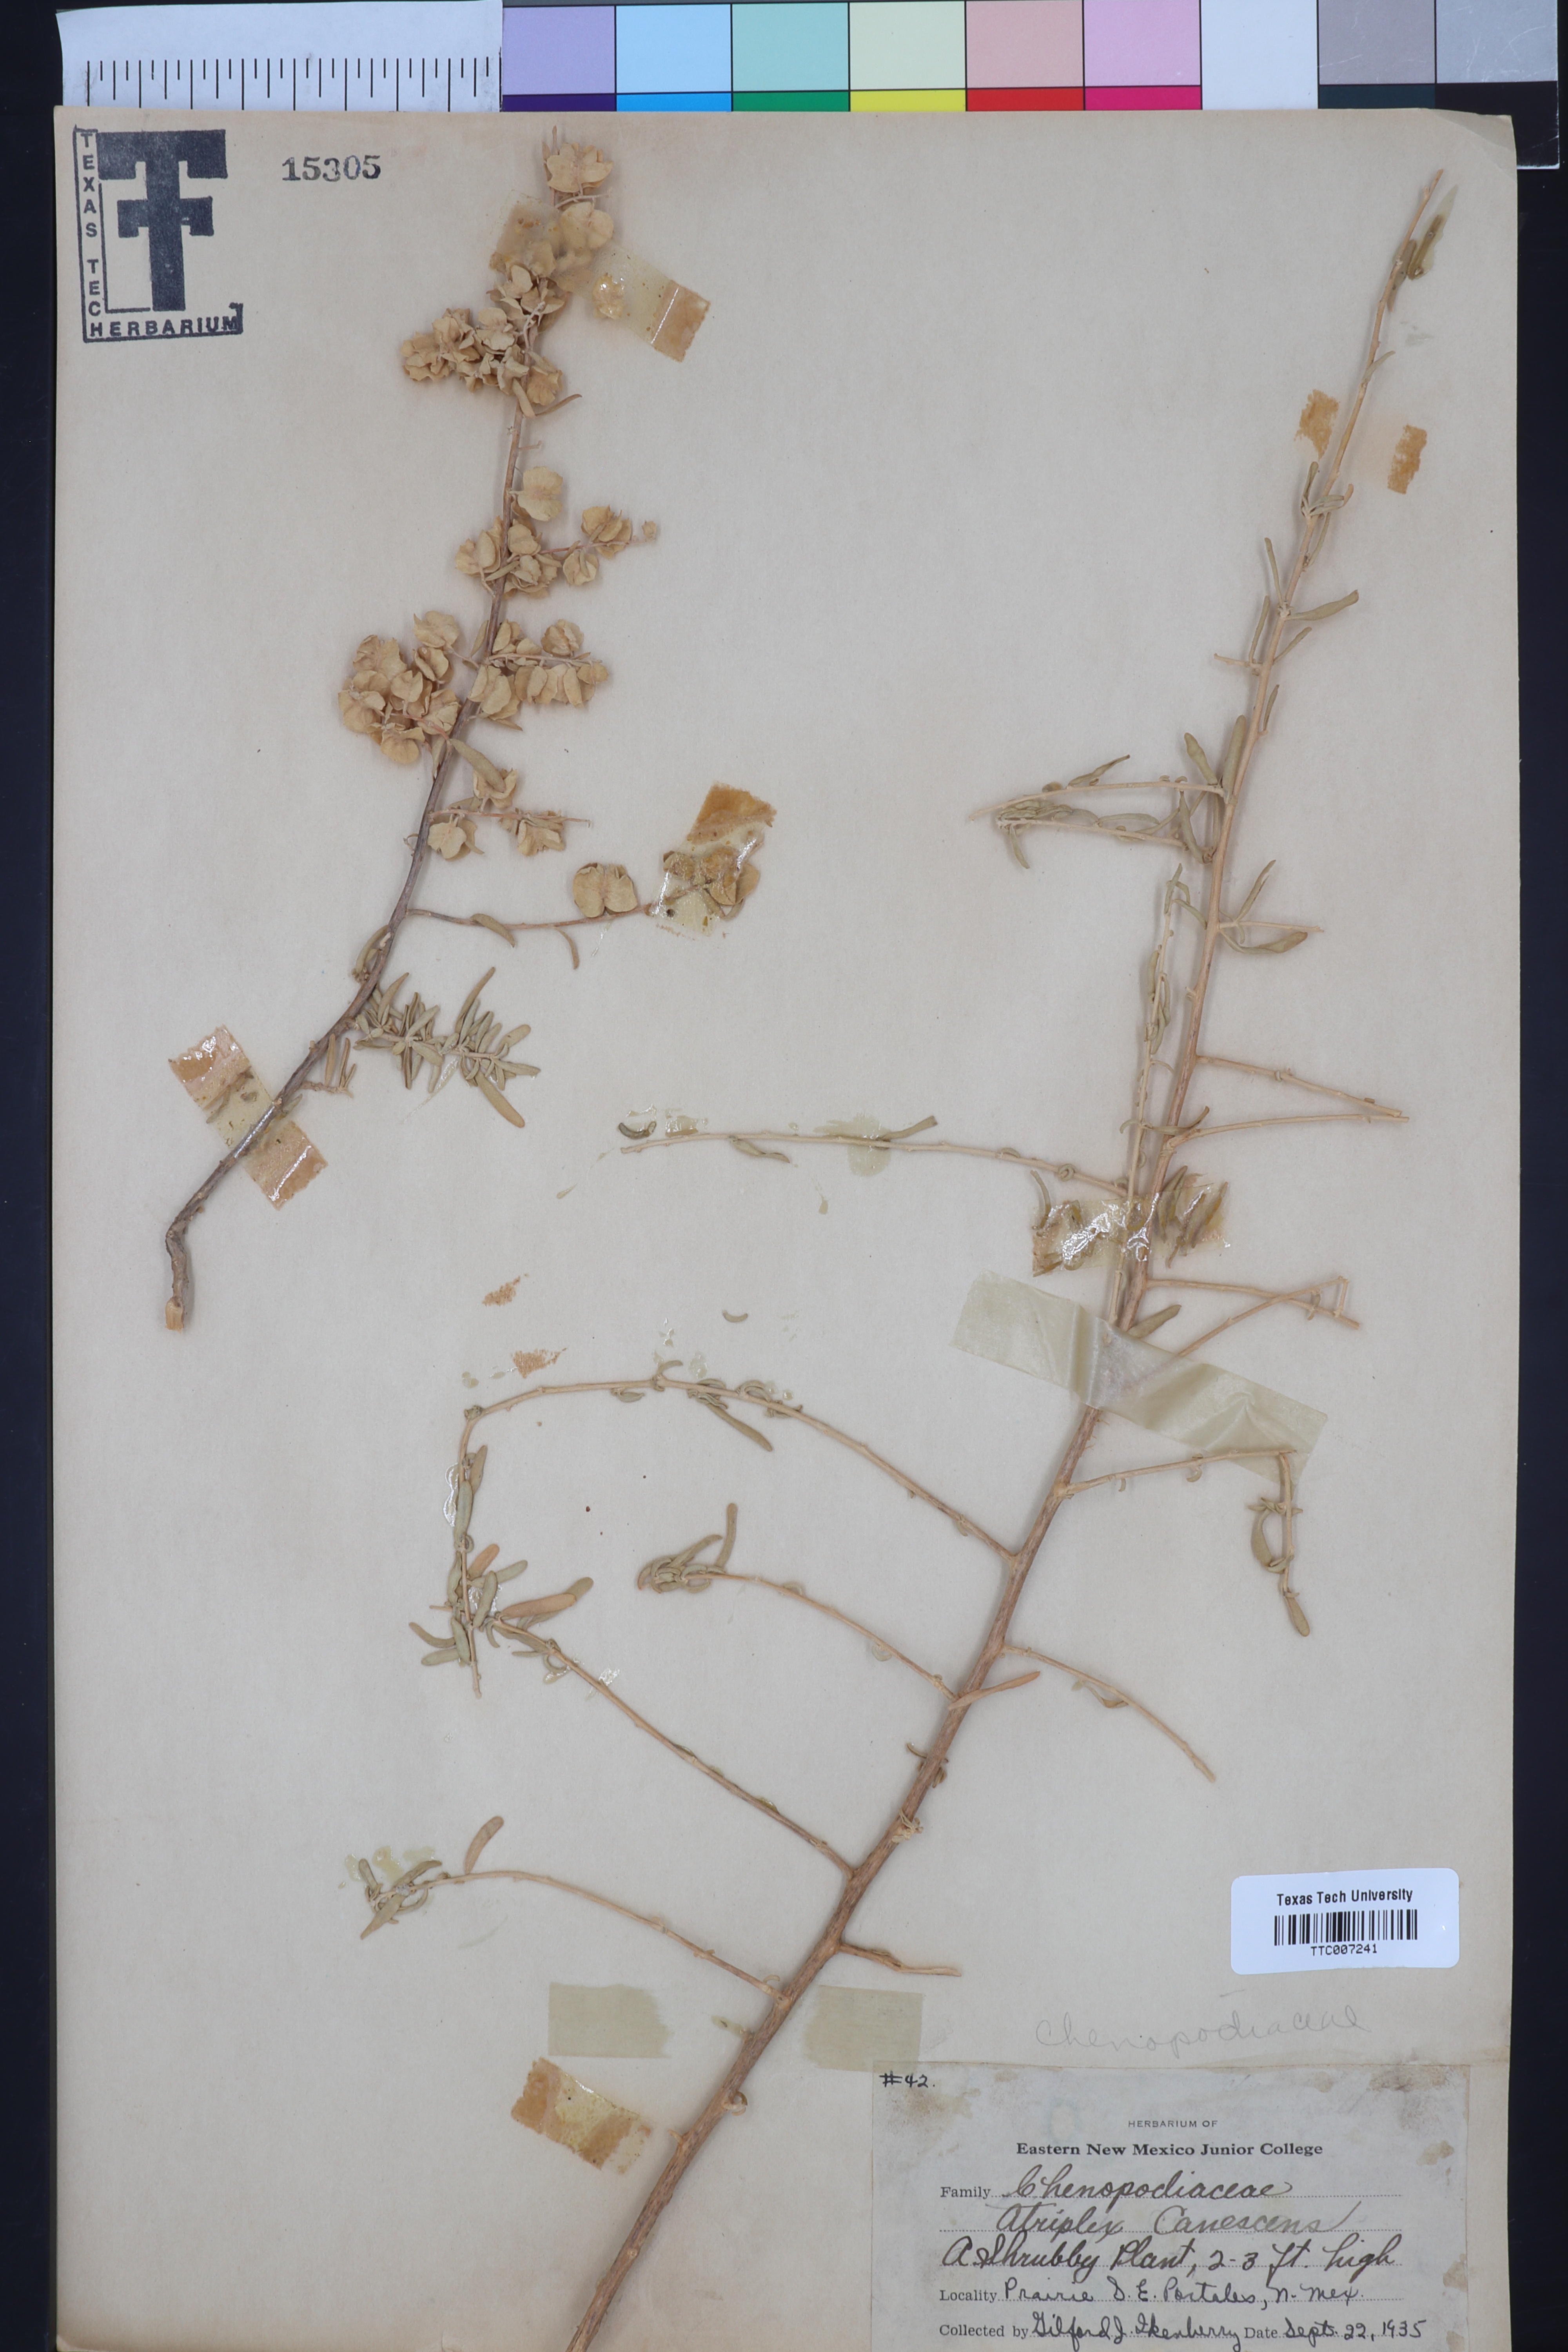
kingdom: Plantae
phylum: Tracheophyta
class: Magnoliopsida
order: Caryophyllales
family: Amaranthaceae
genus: Atriplex
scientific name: Atriplex canescens
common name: Four-wing saltbush
